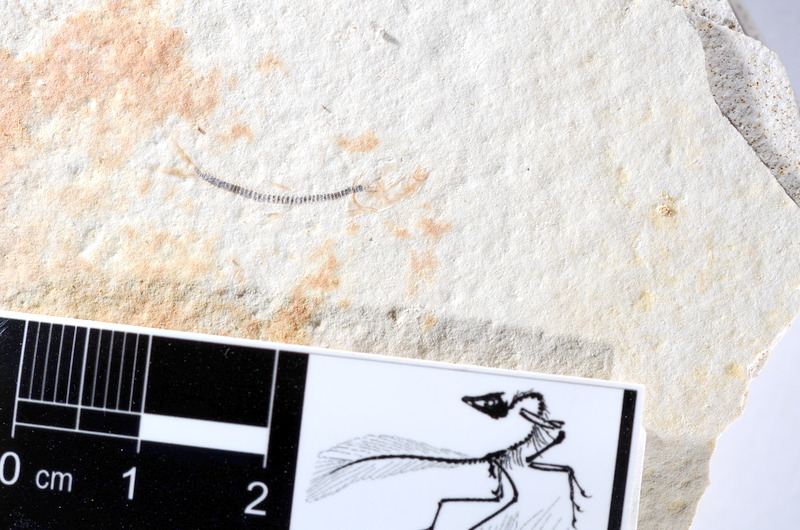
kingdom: Animalia
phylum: Chordata
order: Salmoniformes
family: Orthogonikleithridae
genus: Orthogonikleithrus
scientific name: Orthogonikleithrus hoelli
